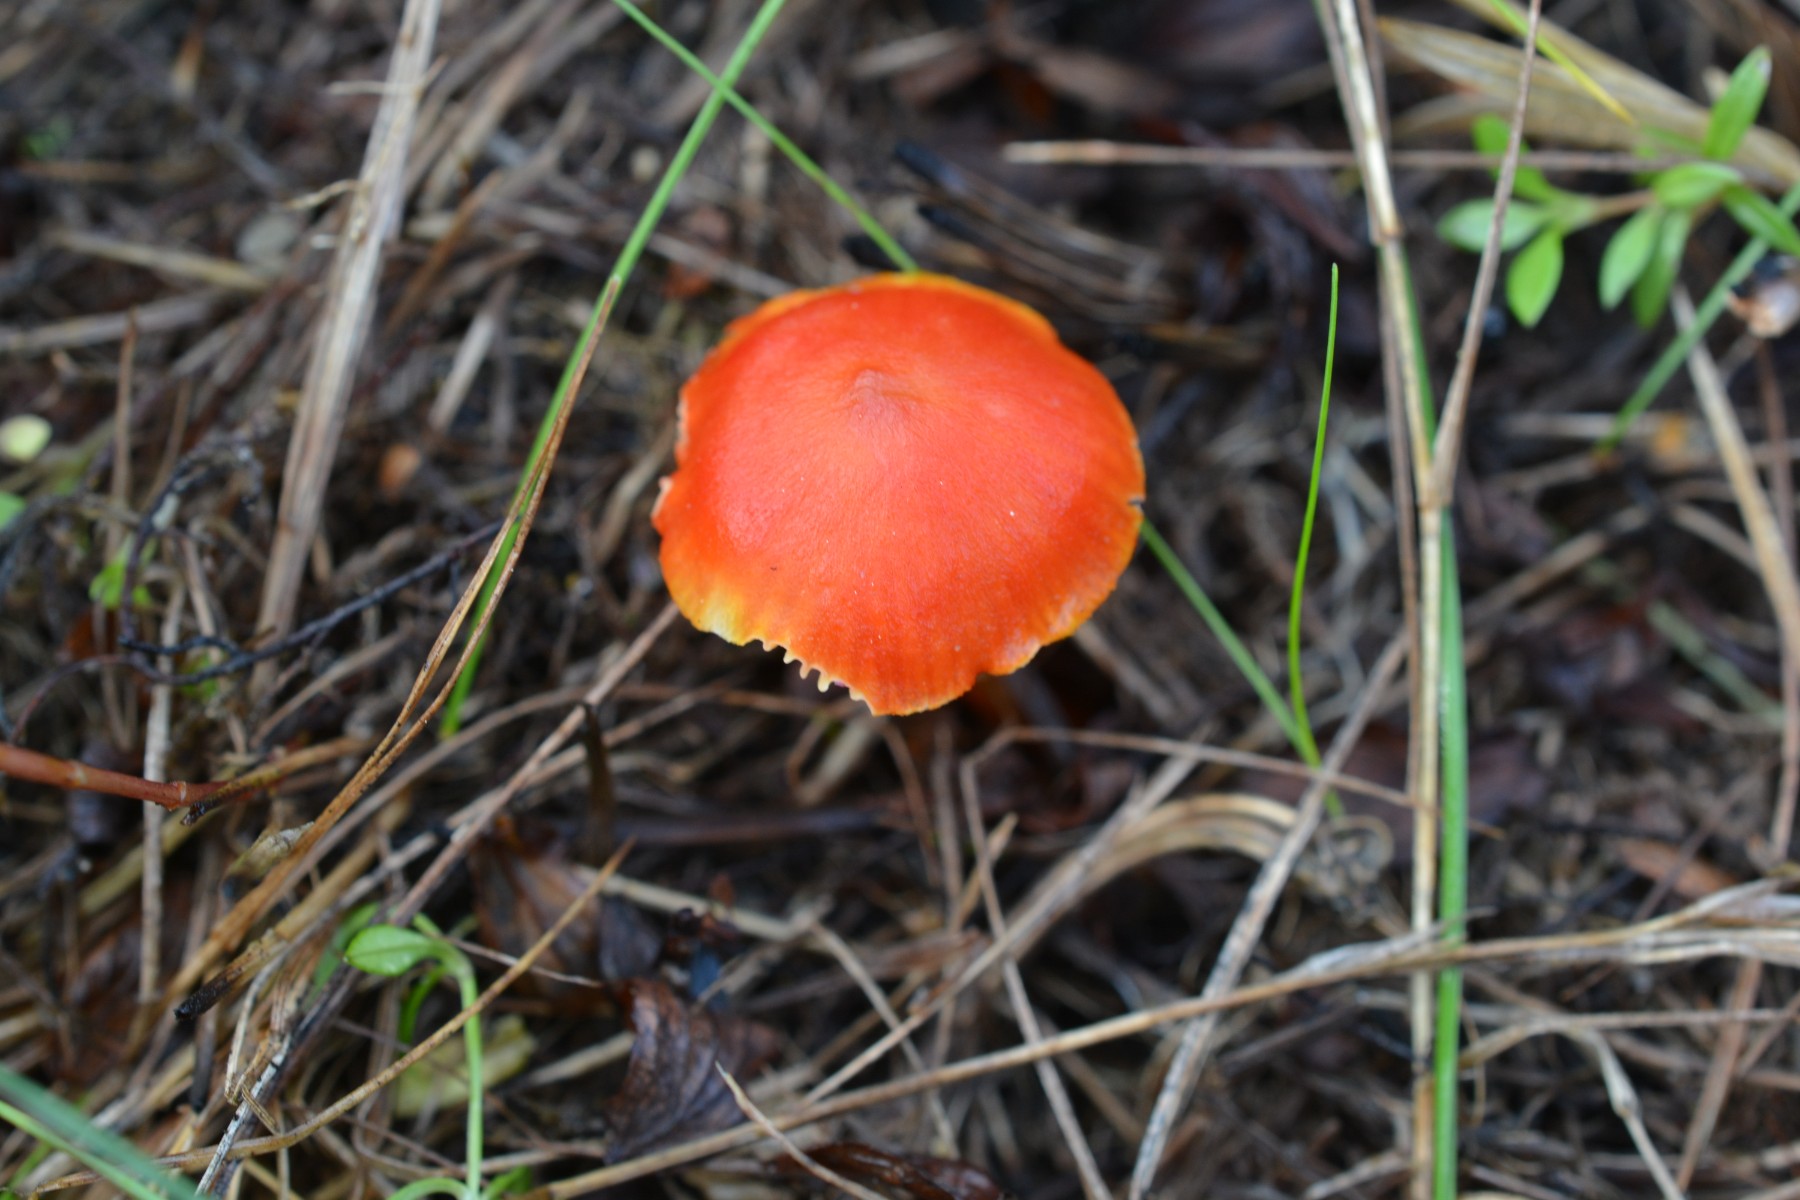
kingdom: Fungi
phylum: Basidiomycota
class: Agaricomycetes
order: Agaricales
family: Hygrophoraceae
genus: Hygrocybe
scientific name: Hygrocybe subpapillata
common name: papil-vokshat
